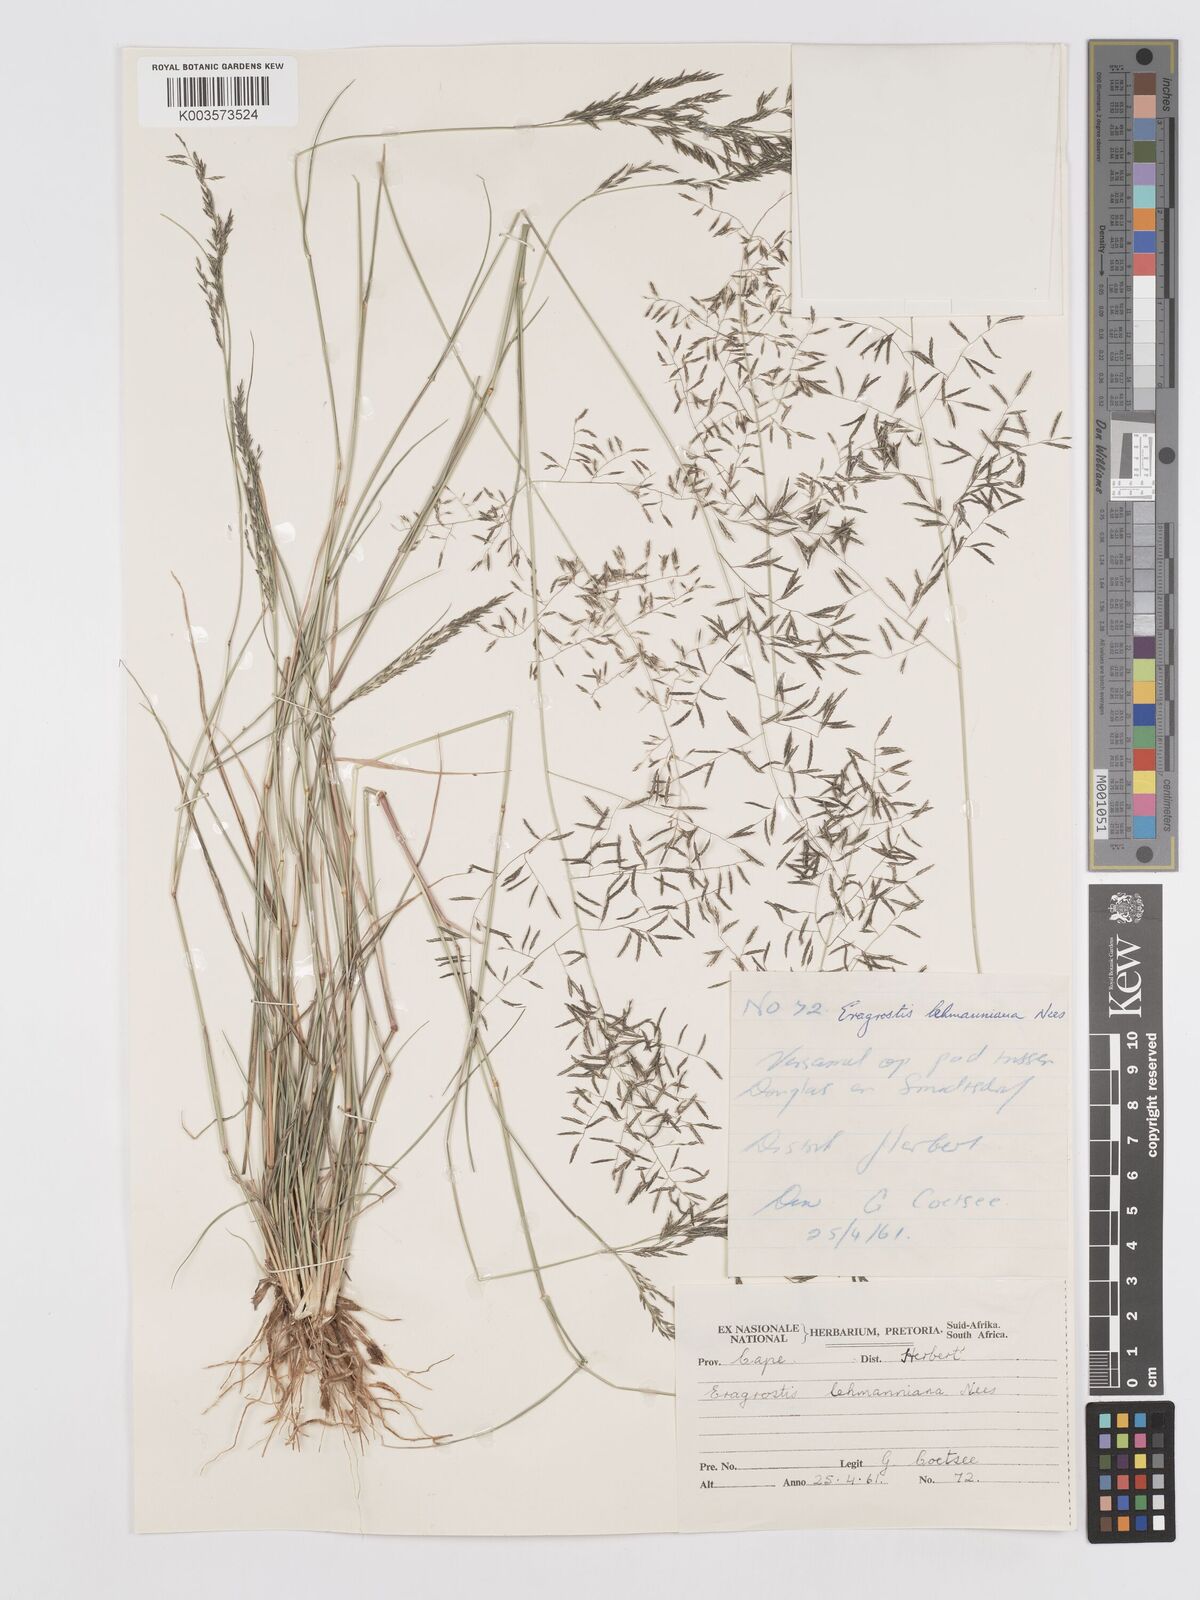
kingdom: Plantae
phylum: Tracheophyta
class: Liliopsida
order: Poales
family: Poaceae
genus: Eragrostis
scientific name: Eragrostis lehmanniana
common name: Lehmann lovegrass
